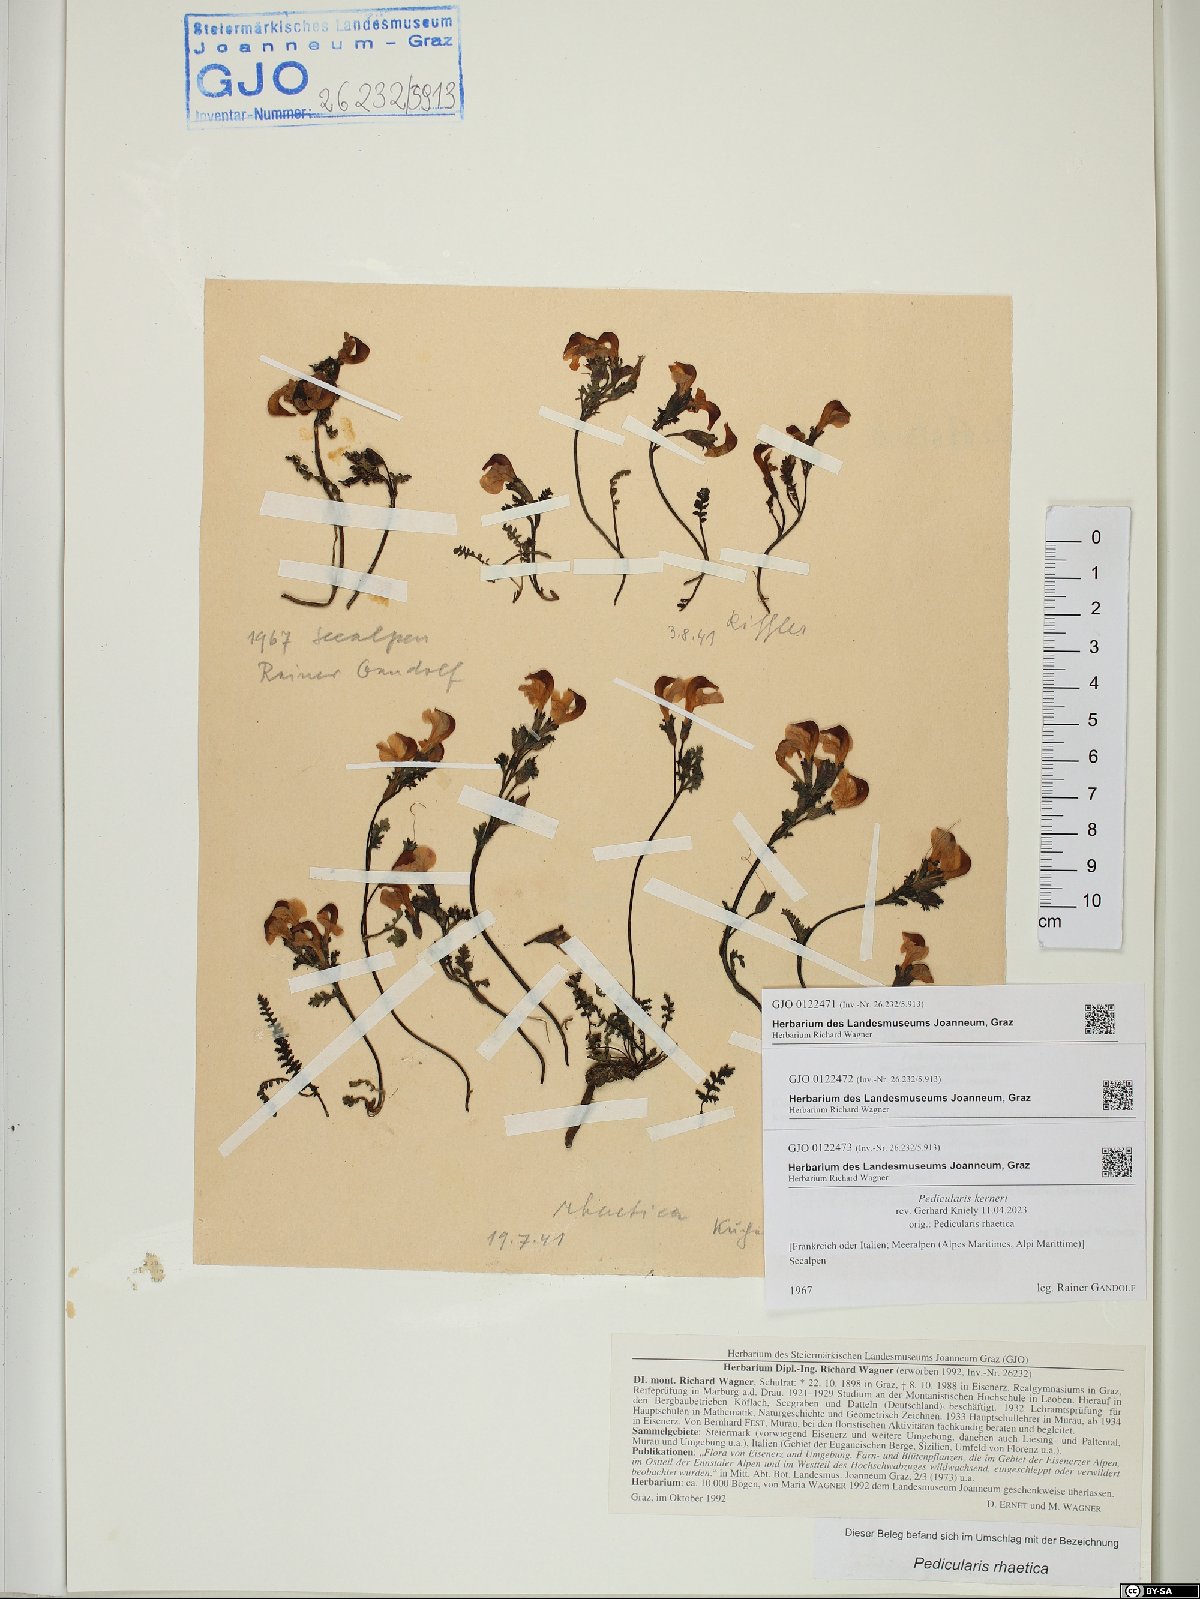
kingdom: Plantae
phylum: Tracheophyta
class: Magnoliopsida
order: Lamiales
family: Orobanchaceae
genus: Pedicularis
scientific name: Pedicularis kerneri
